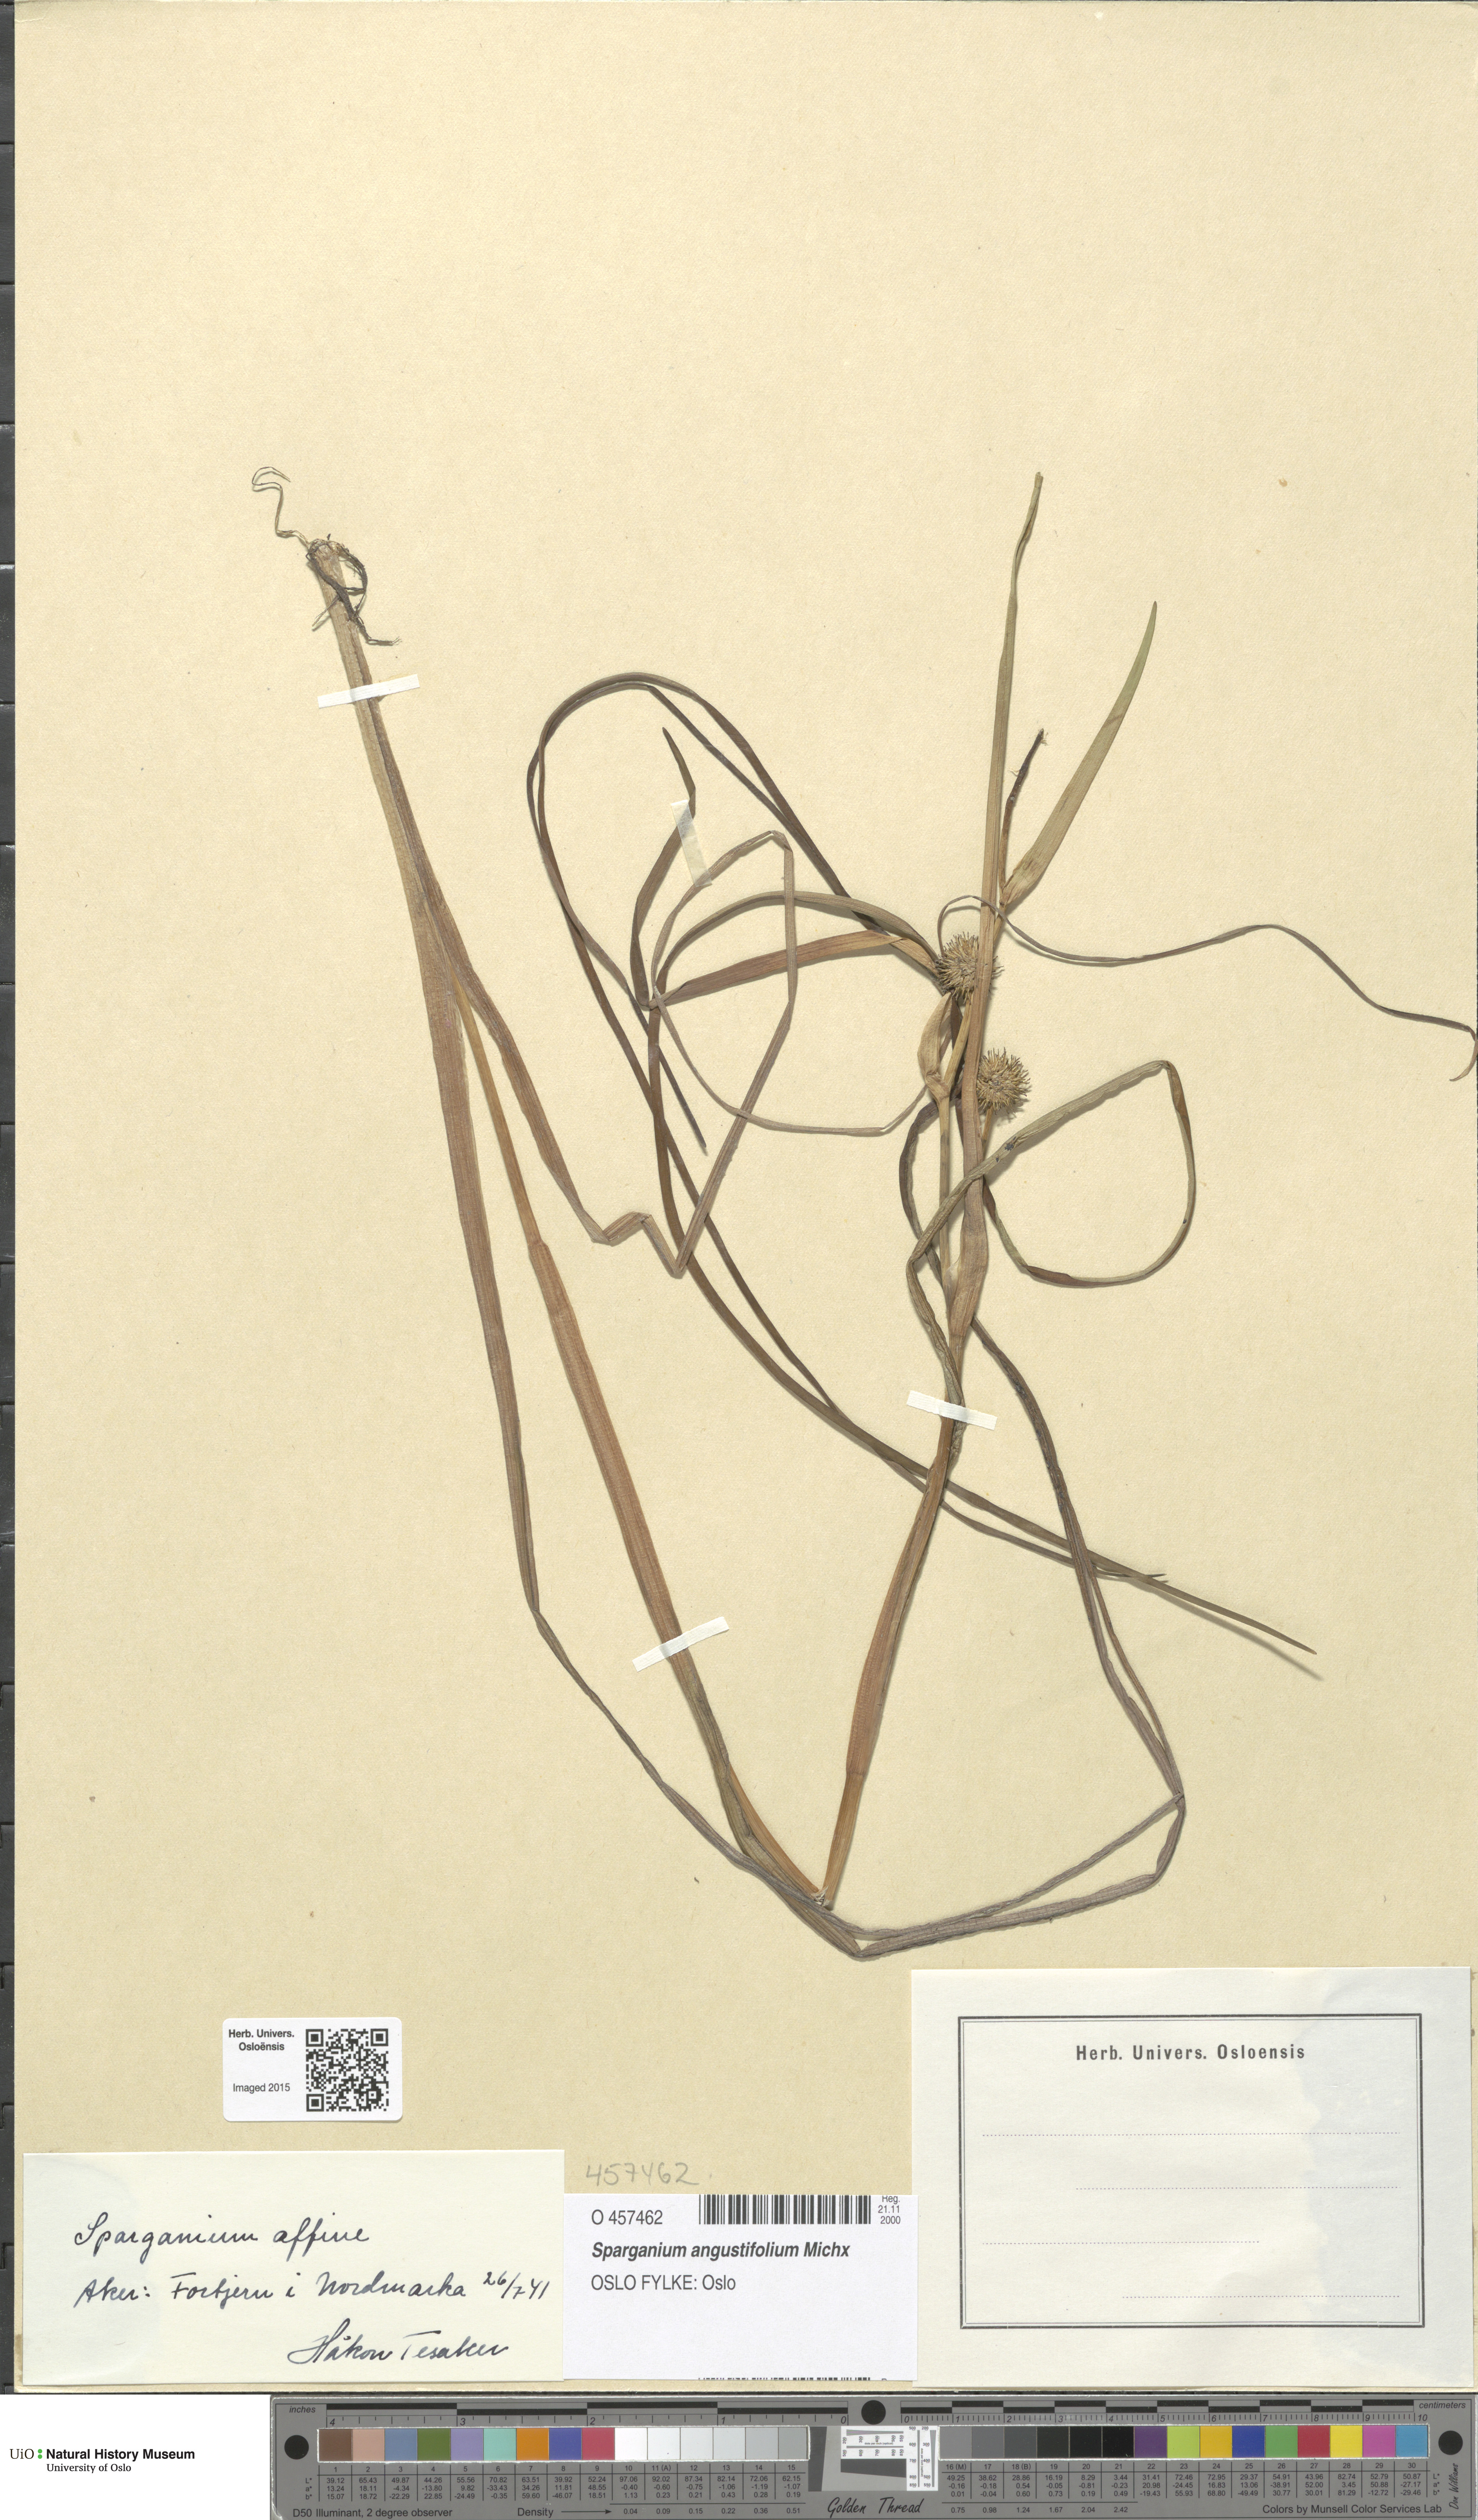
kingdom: Plantae
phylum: Tracheophyta
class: Liliopsida
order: Poales
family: Typhaceae
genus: Sparganium
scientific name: Sparganium angustifolium
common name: Floating bur-reed
